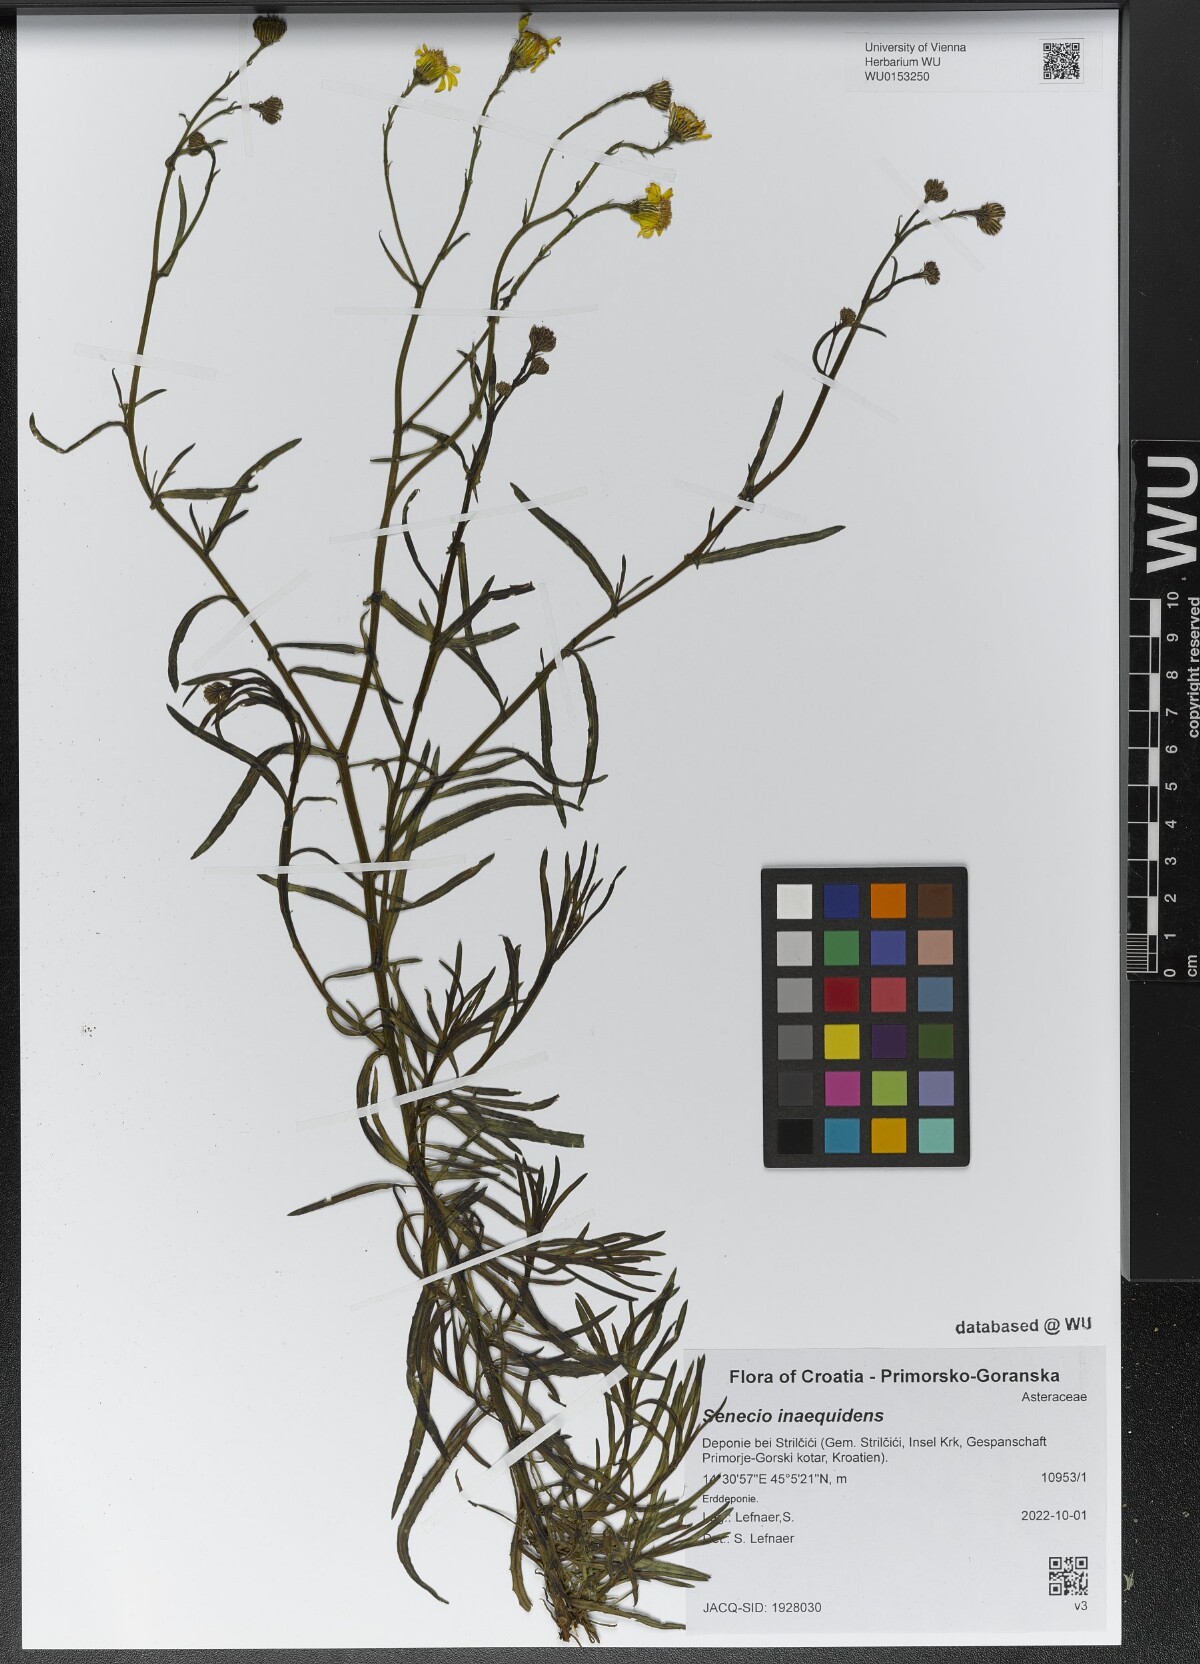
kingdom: Plantae
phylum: Tracheophyta
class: Magnoliopsida
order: Asterales
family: Asteraceae
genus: Senecio
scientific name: Senecio inaequidens
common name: Narrow-leaved ragwort
